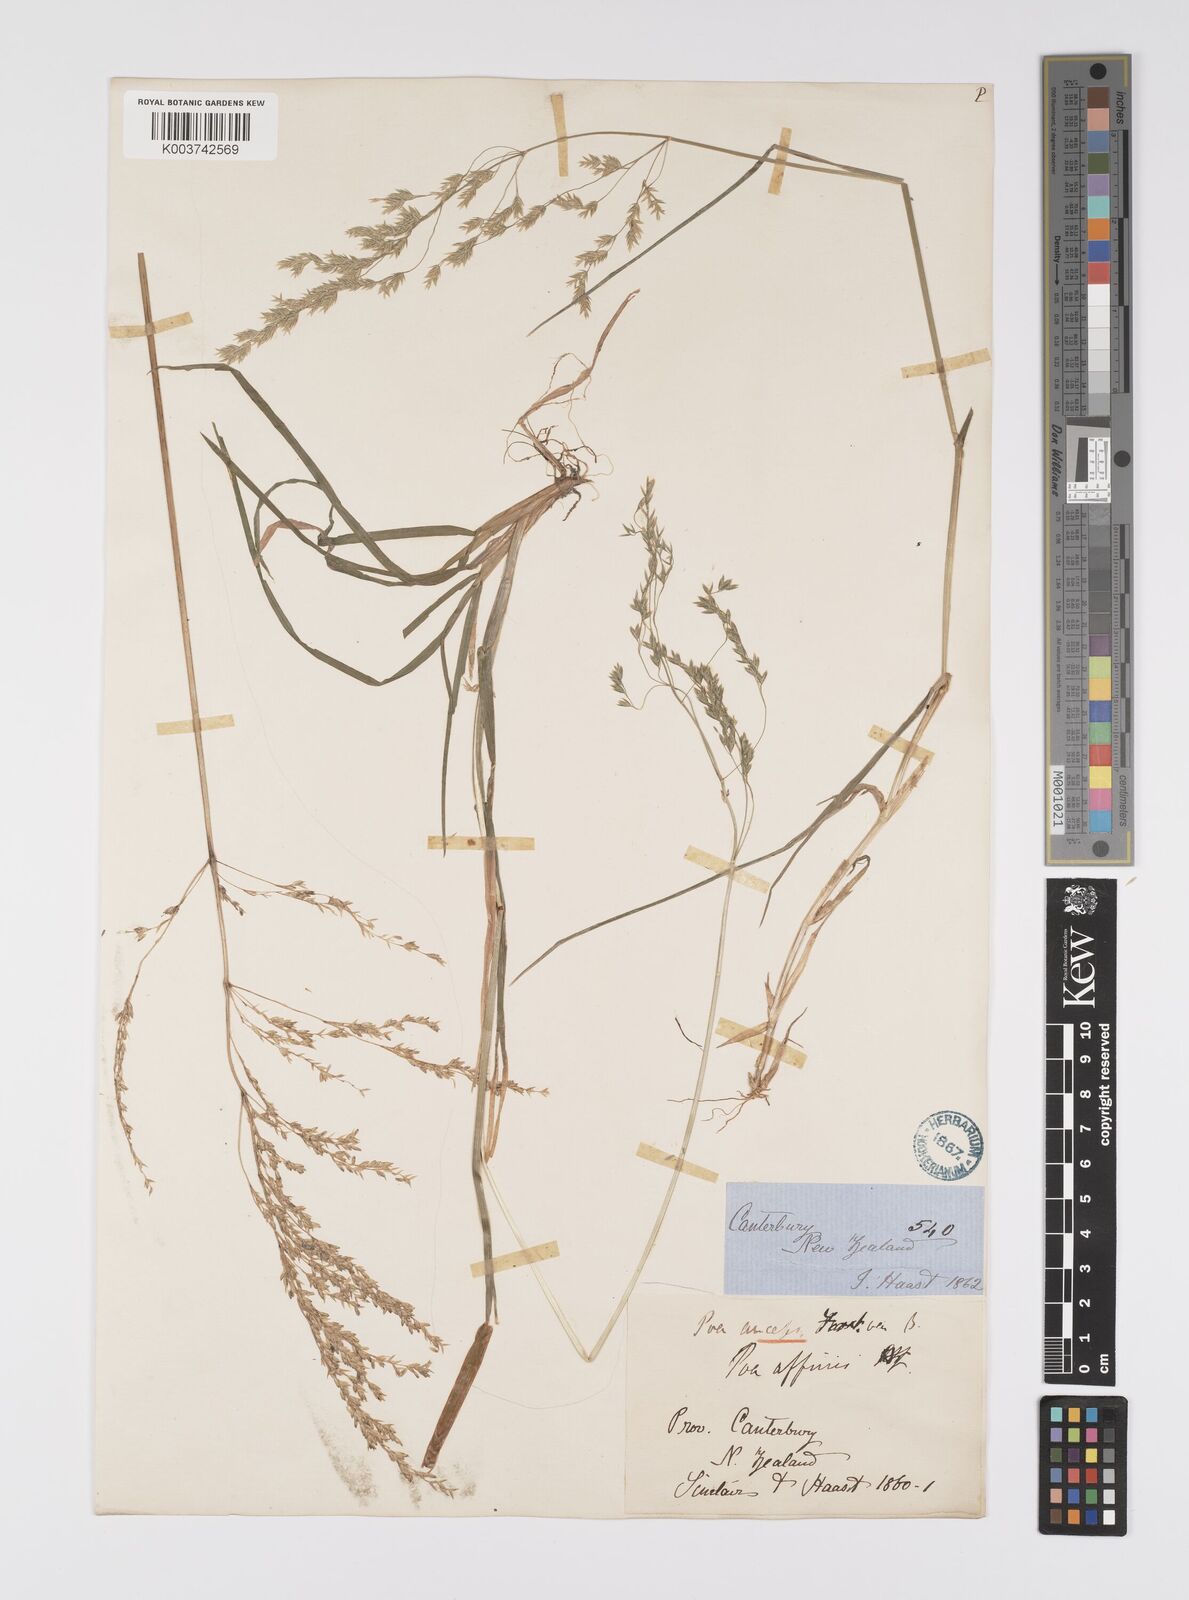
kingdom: Plantae
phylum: Tracheophyta
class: Liliopsida
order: Poales
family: Poaceae
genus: Poa
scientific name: Poa anceps
